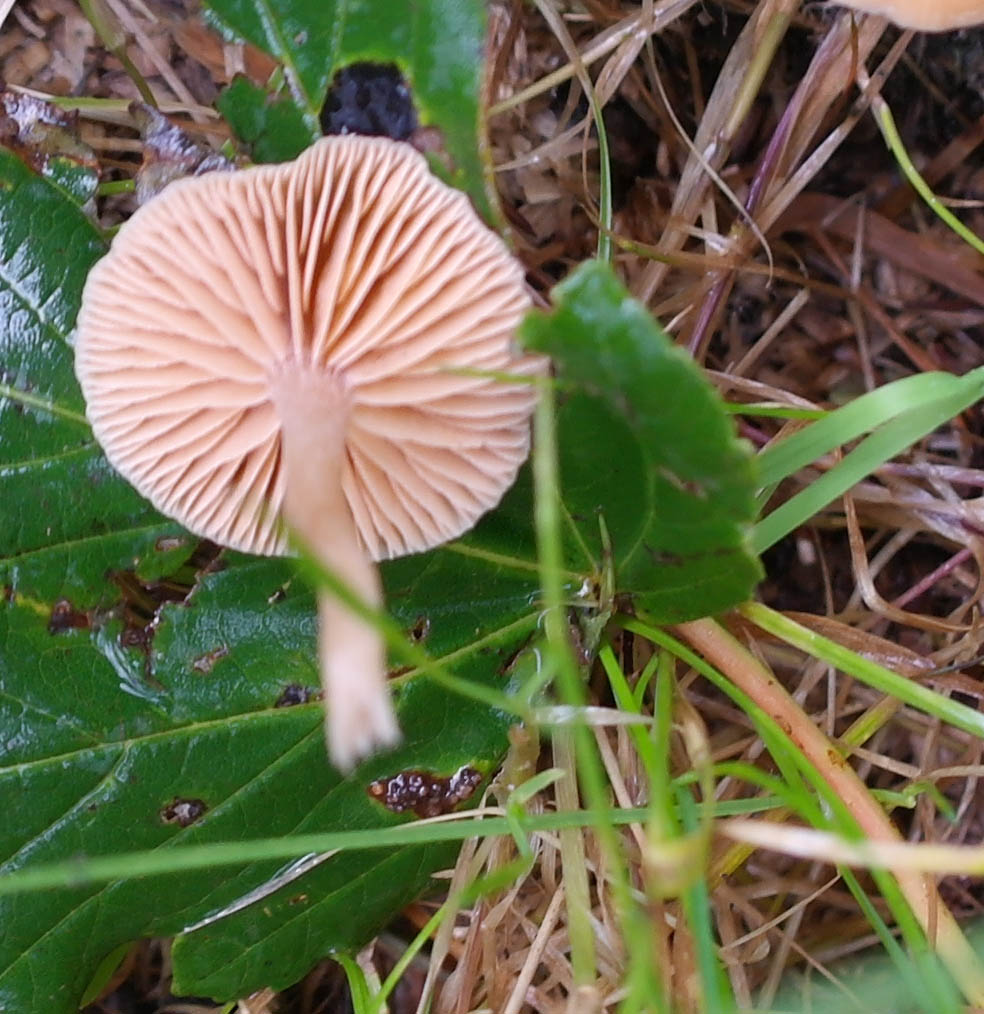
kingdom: Fungi
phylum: Basidiomycota
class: Agaricomycetes
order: Agaricales
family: Hydnangiaceae
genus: Laccaria
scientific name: Laccaria laccata
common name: rød ametysthat
